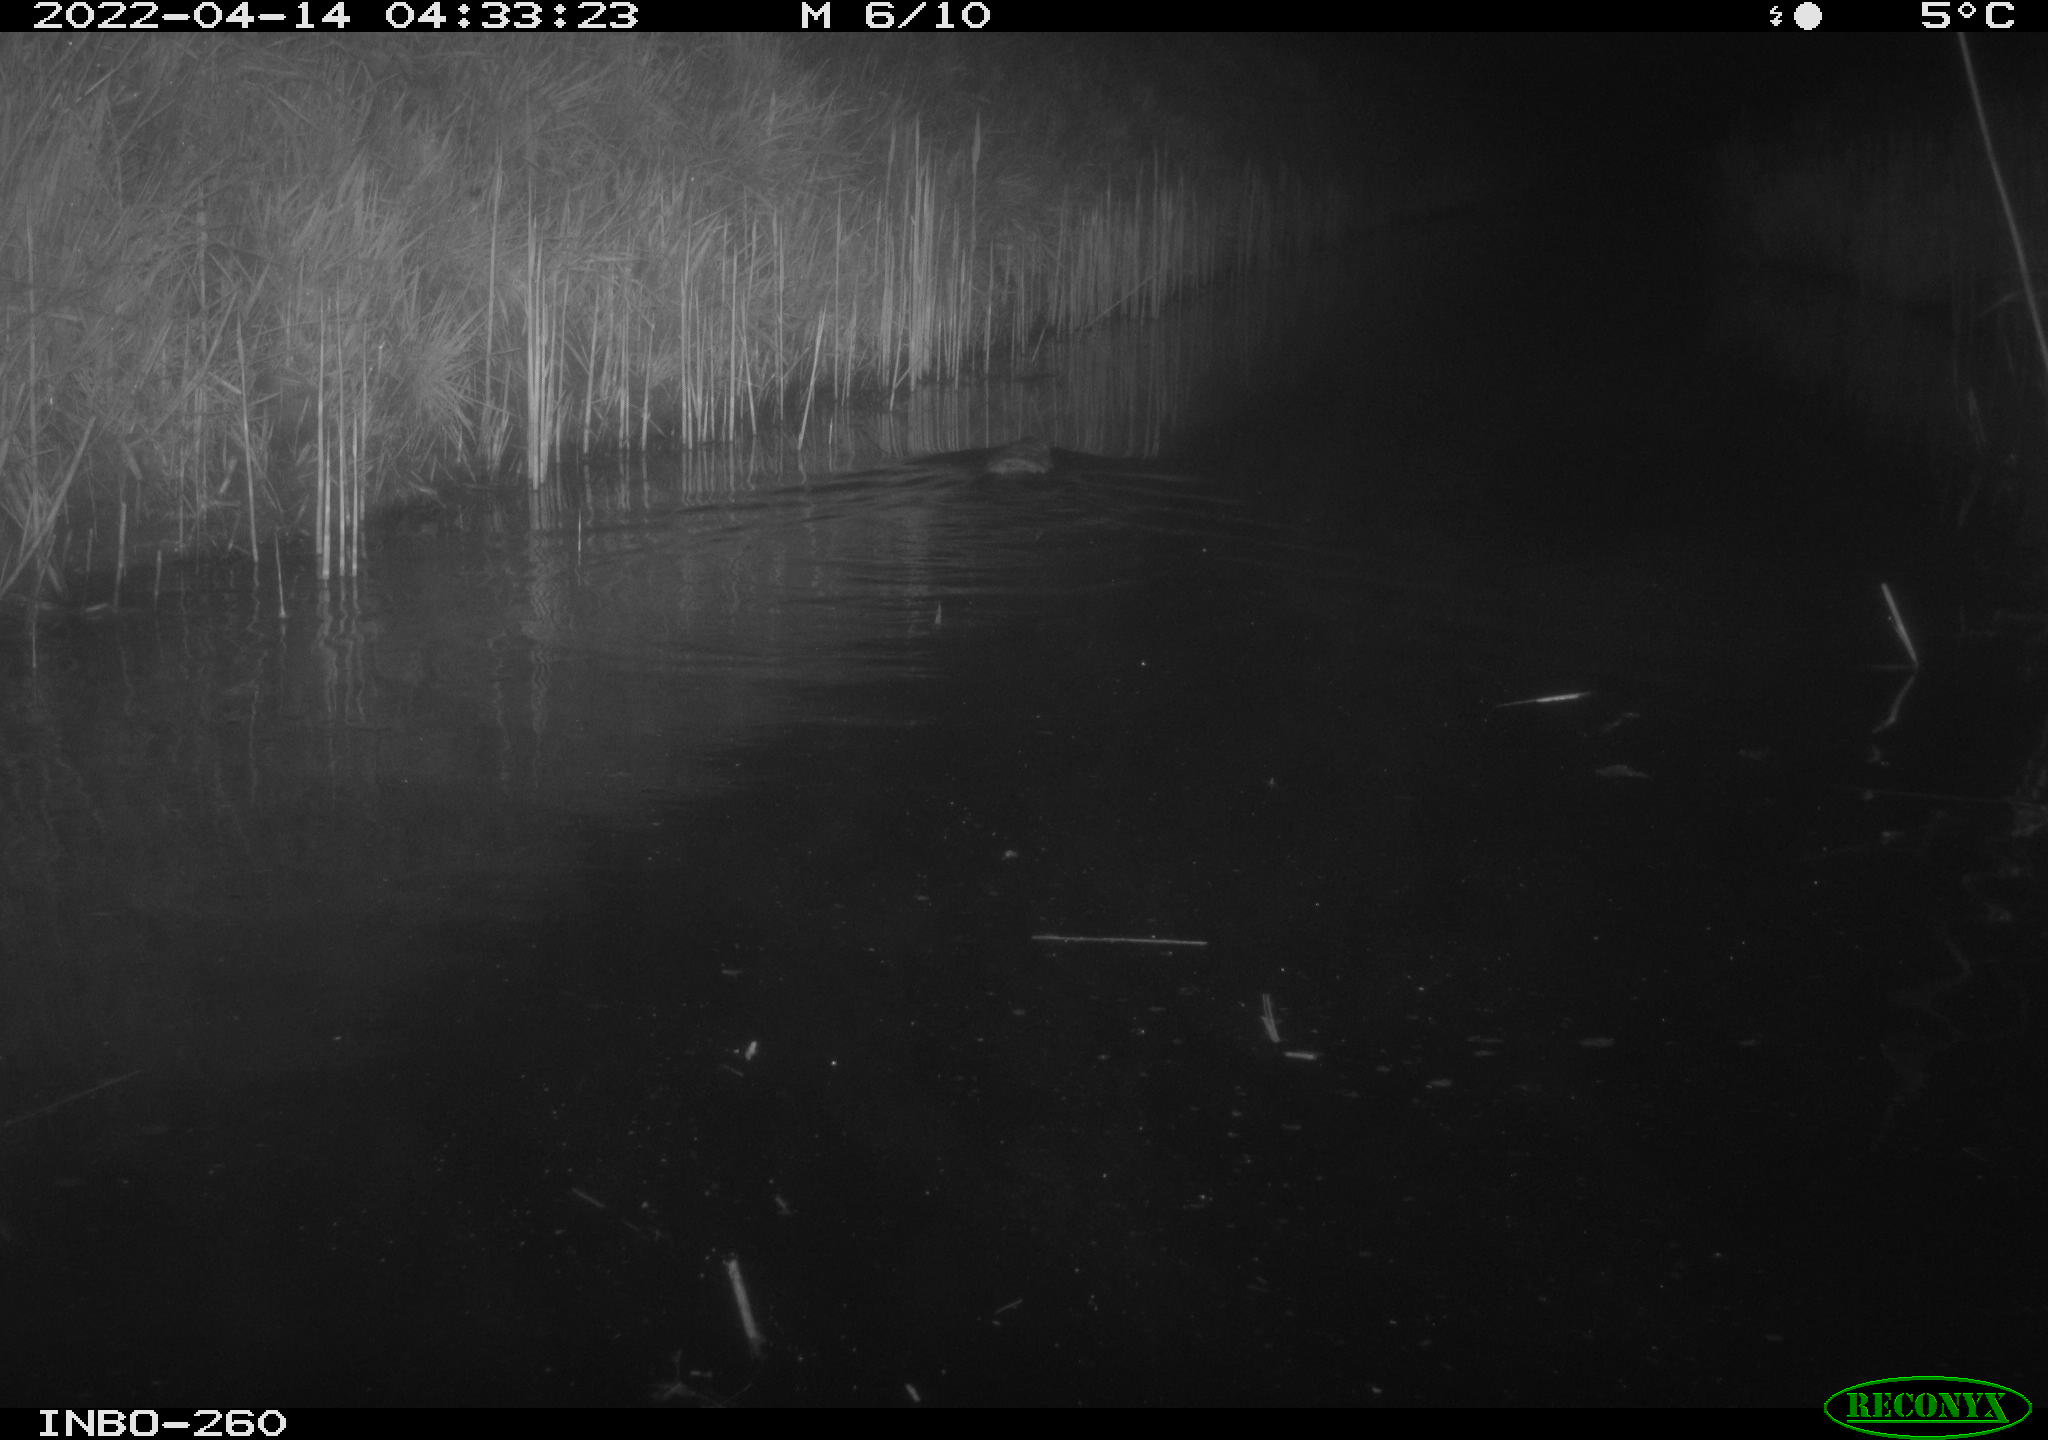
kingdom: Animalia
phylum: Chordata
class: Mammalia
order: Rodentia
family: Cricetidae
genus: Ondatra
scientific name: Ondatra zibethicus
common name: Muskrat
